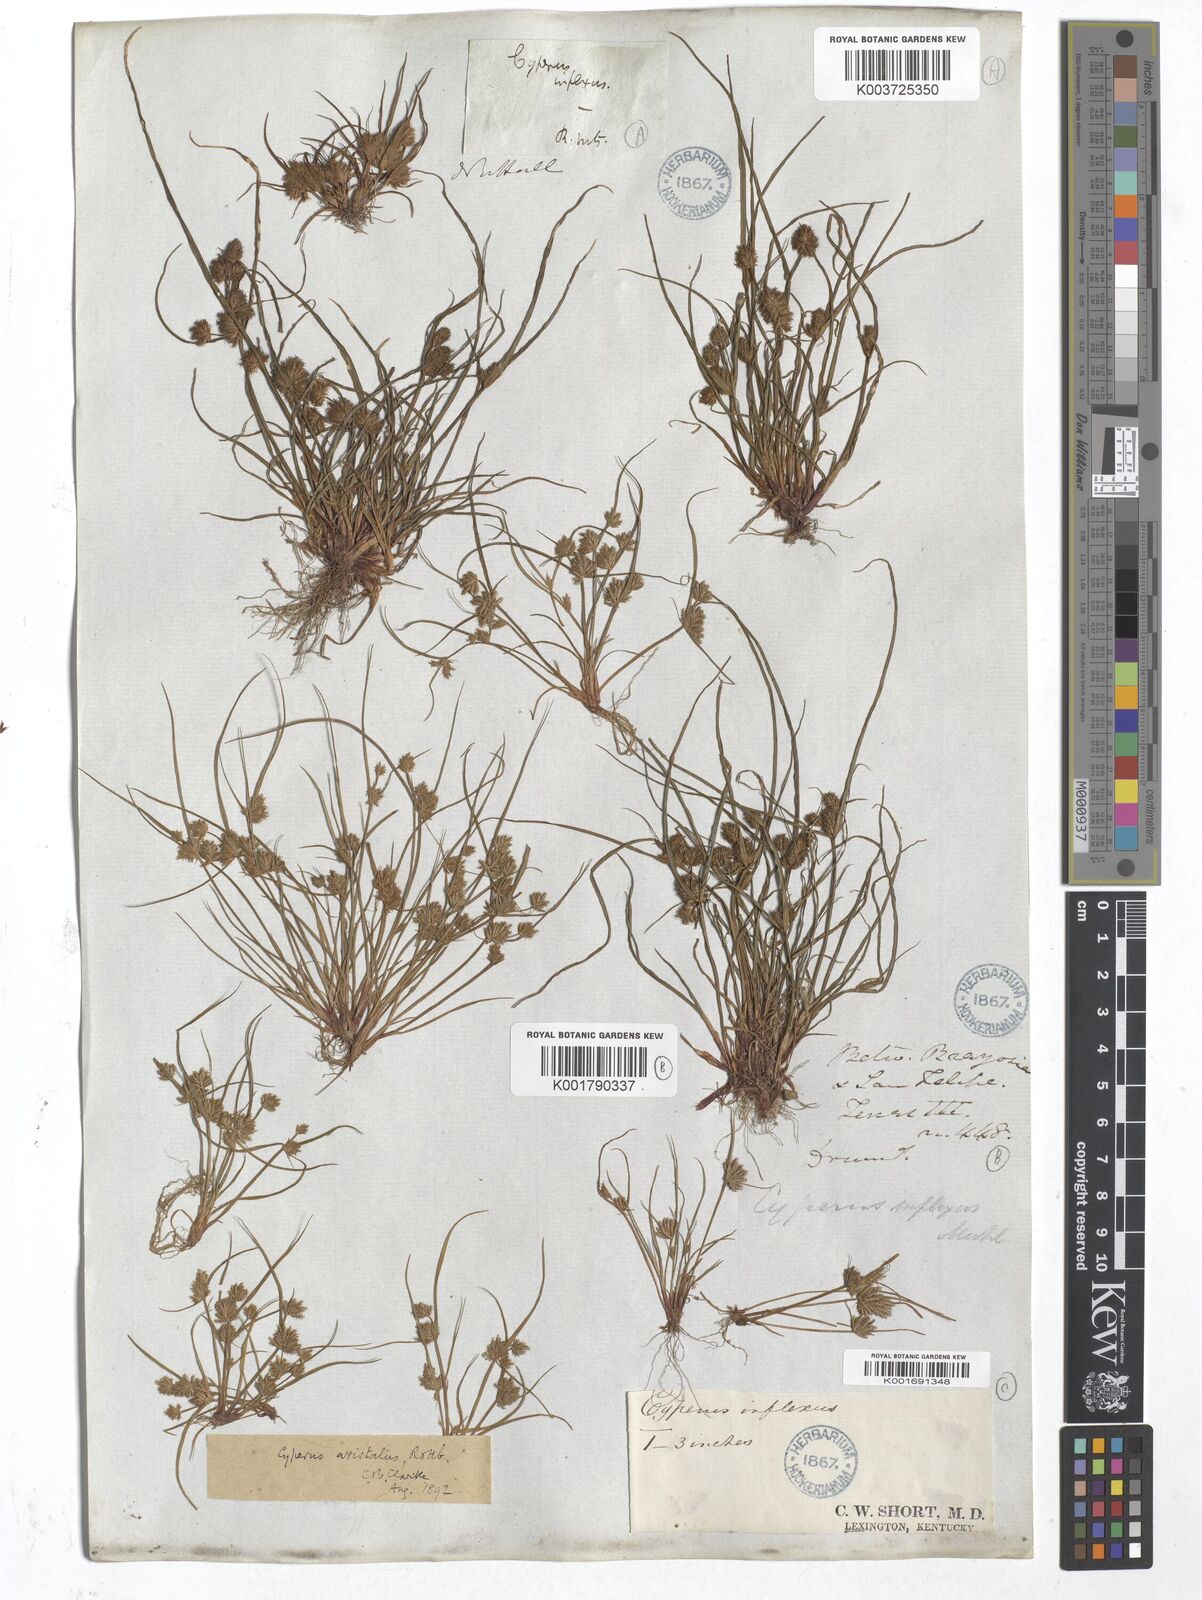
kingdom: Plantae
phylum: Tracheophyta
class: Liliopsida
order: Poales
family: Cyperaceae
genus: Cyperus
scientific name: Cyperus squarrosus
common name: Awned cyperus
